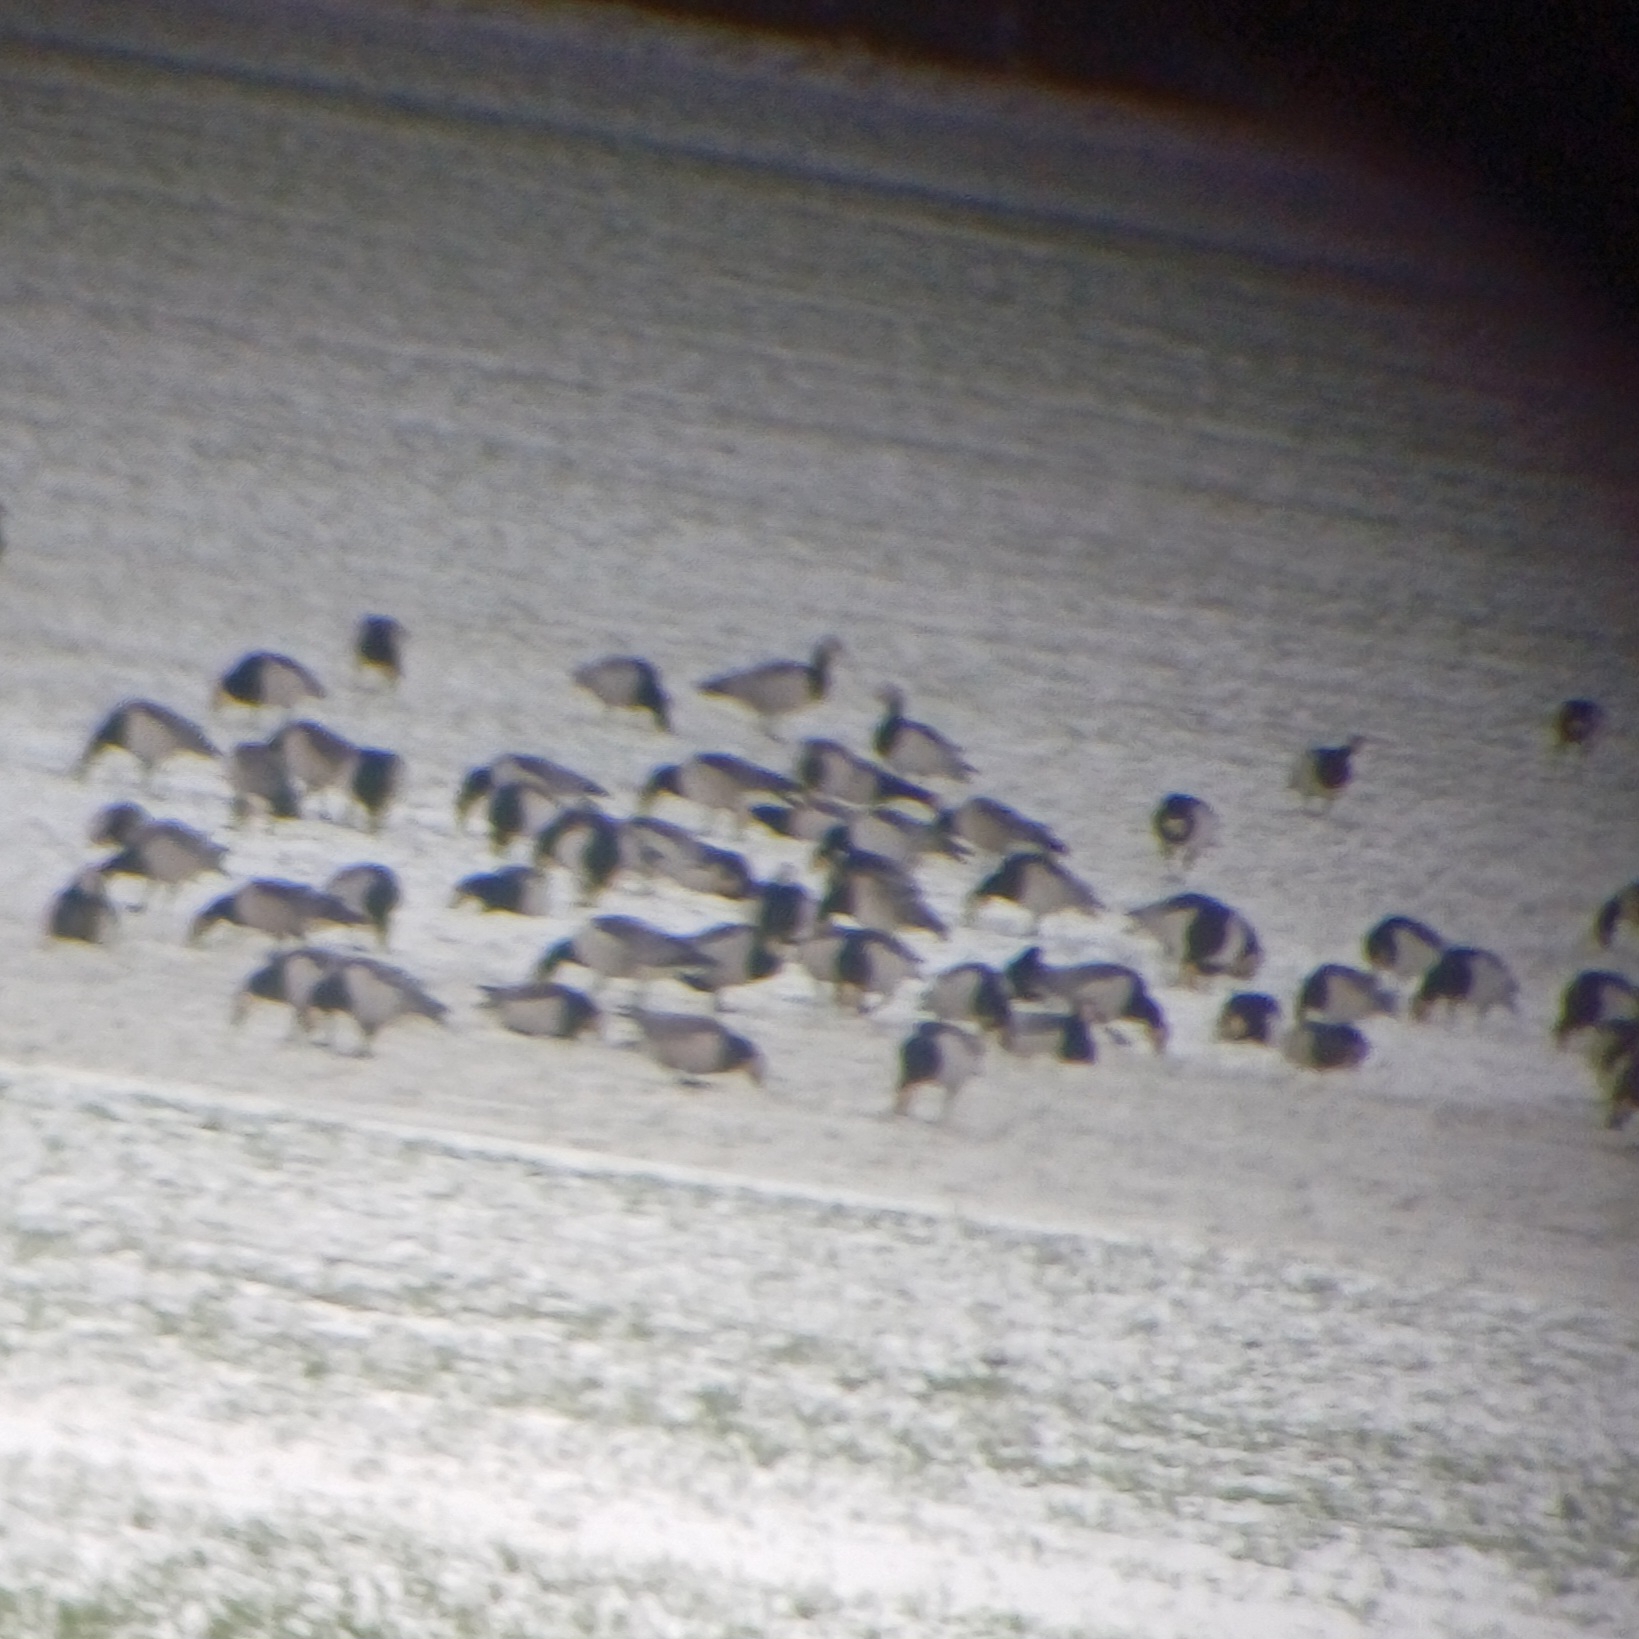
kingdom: Animalia
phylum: Chordata
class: Aves
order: Anseriformes
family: Anatidae
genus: Branta
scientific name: Branta leucopsis
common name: Bramgås
